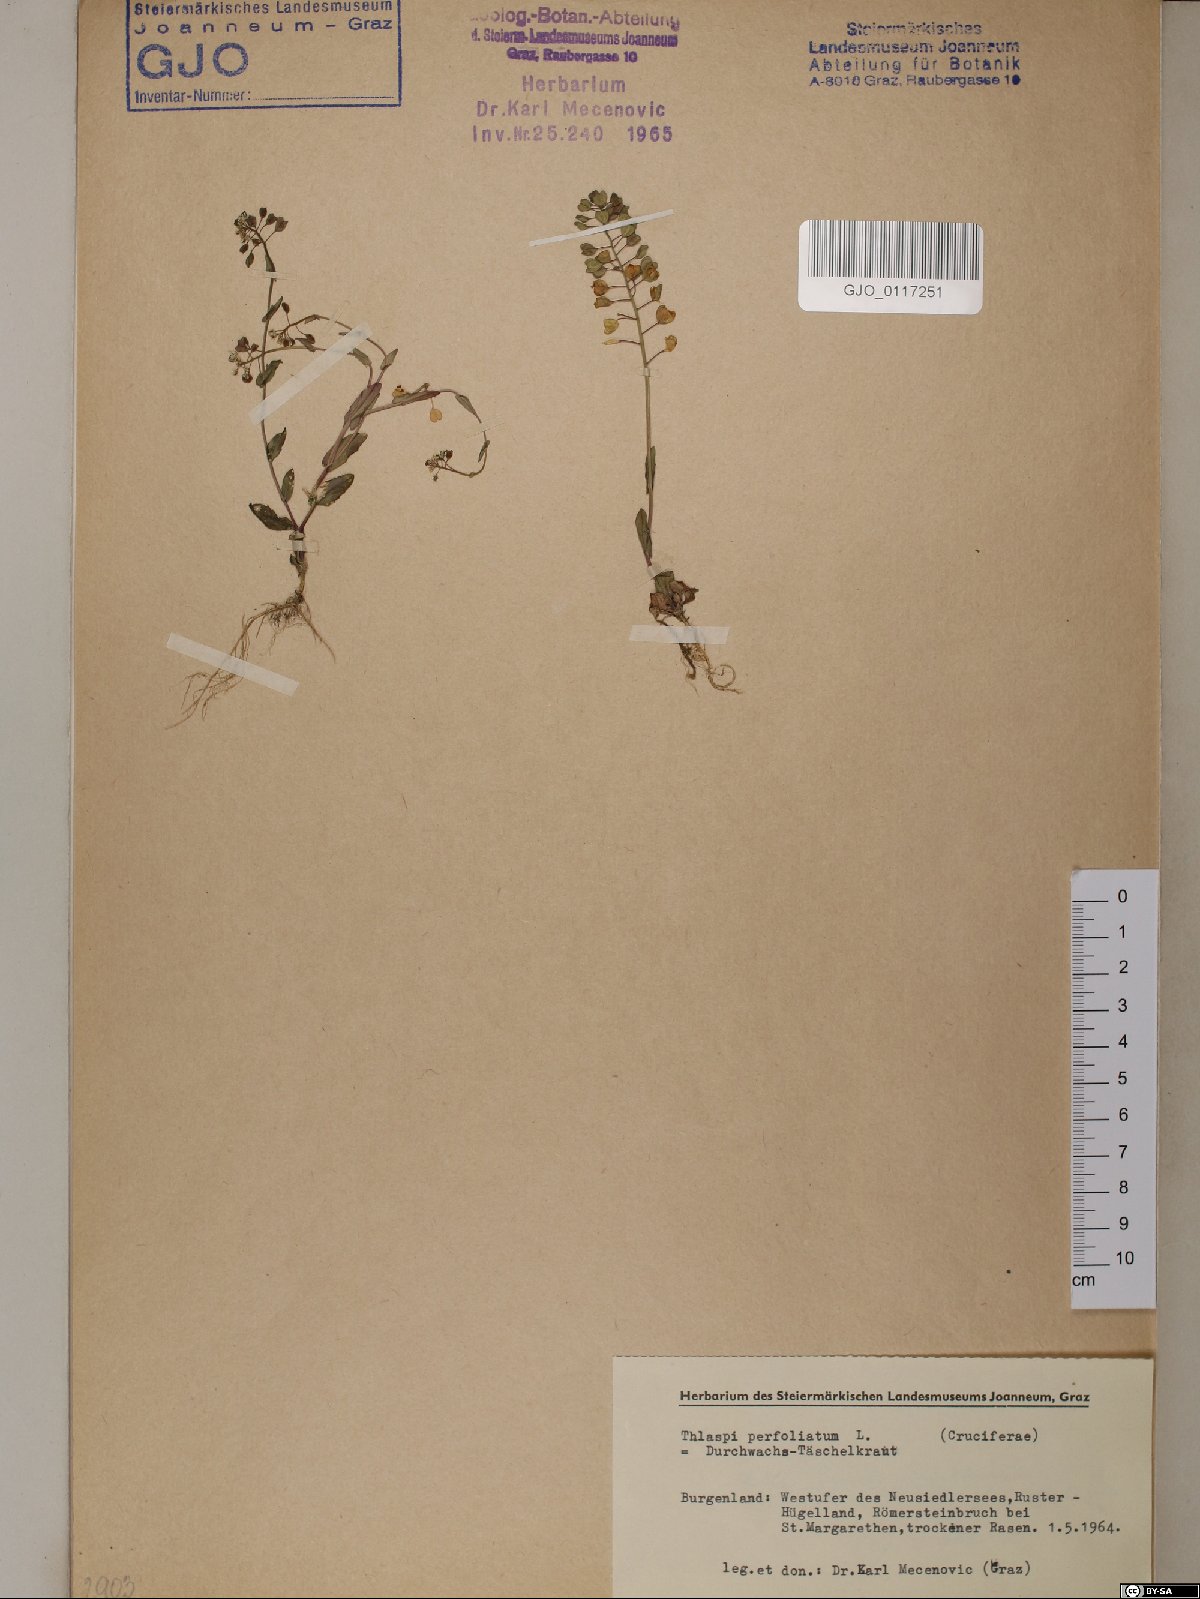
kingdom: Plantae
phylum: Tracheophyta
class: Magnoliopsida
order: Brassicales
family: Brassicaceae
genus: Noccaea
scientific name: Noccaea perfoliata
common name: Perfoliate pennycress
